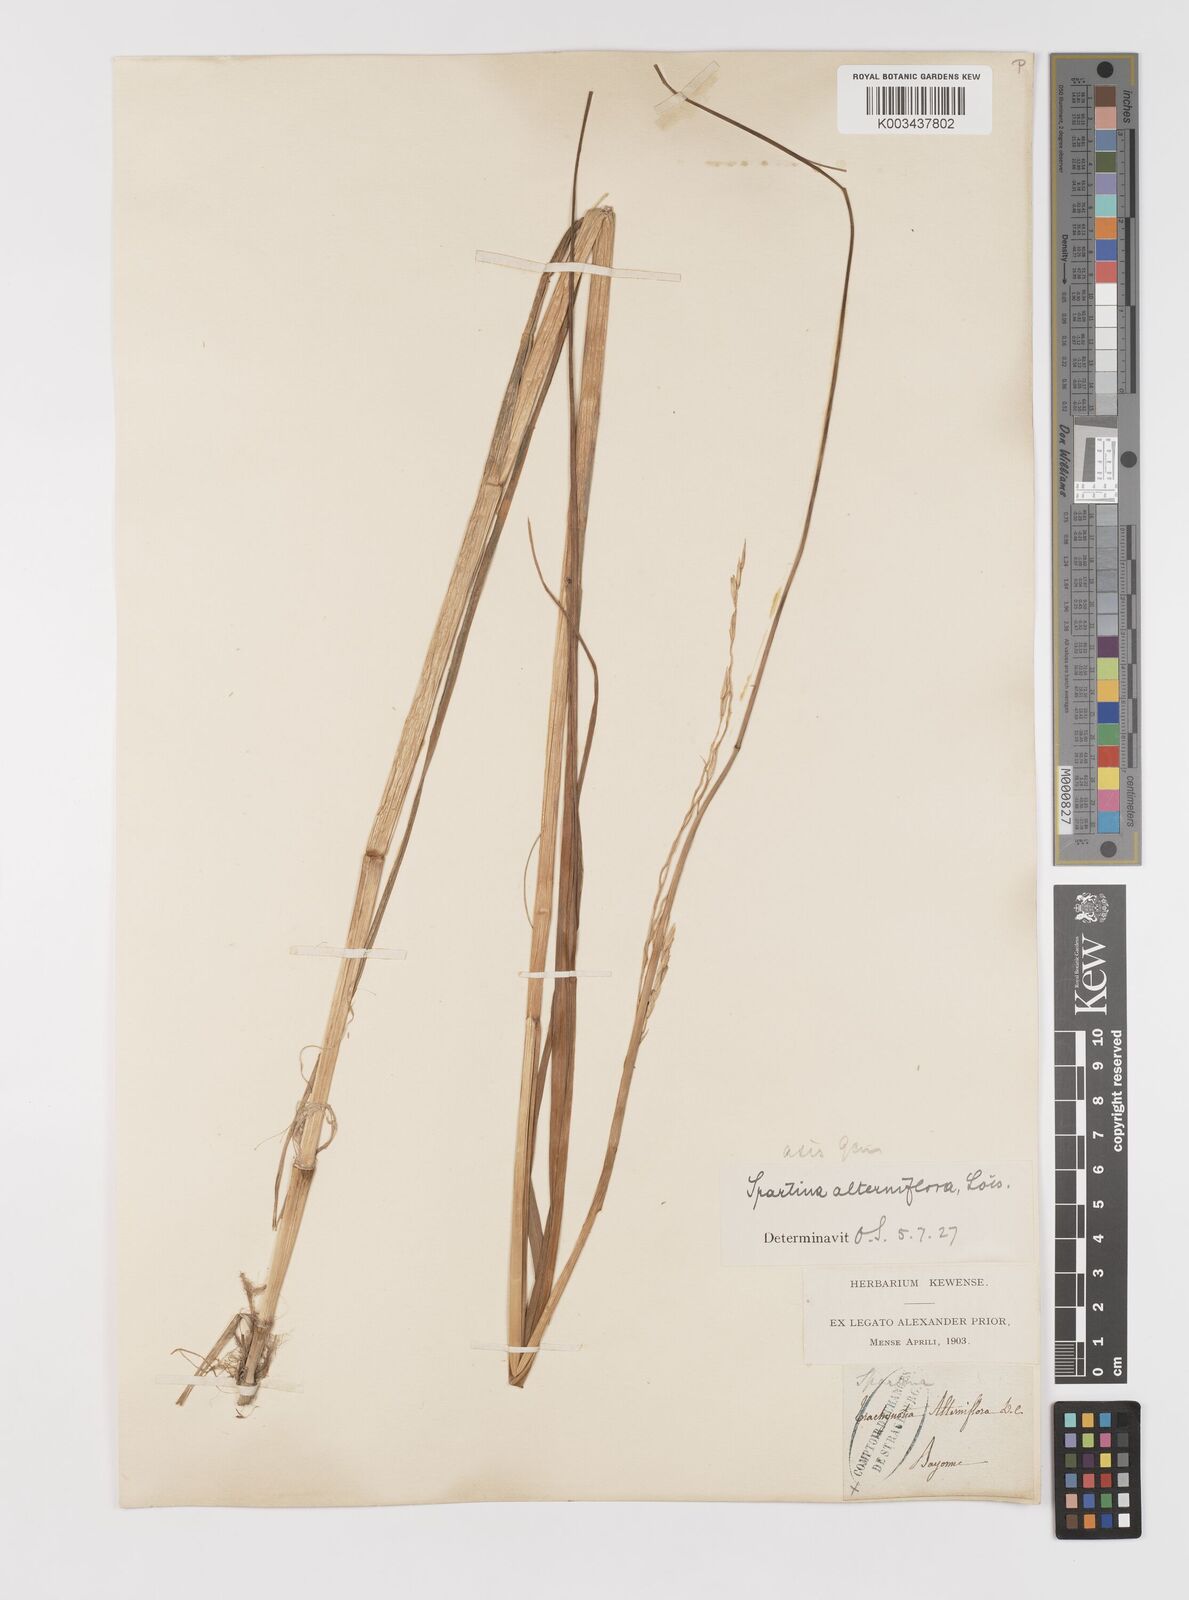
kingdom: Plantae
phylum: Tracheophyta
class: Liliopsida
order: Poales
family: Poaceae
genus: Sporobolus
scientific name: Sporobolus alterniflorus
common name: Atlantic cordgrass
